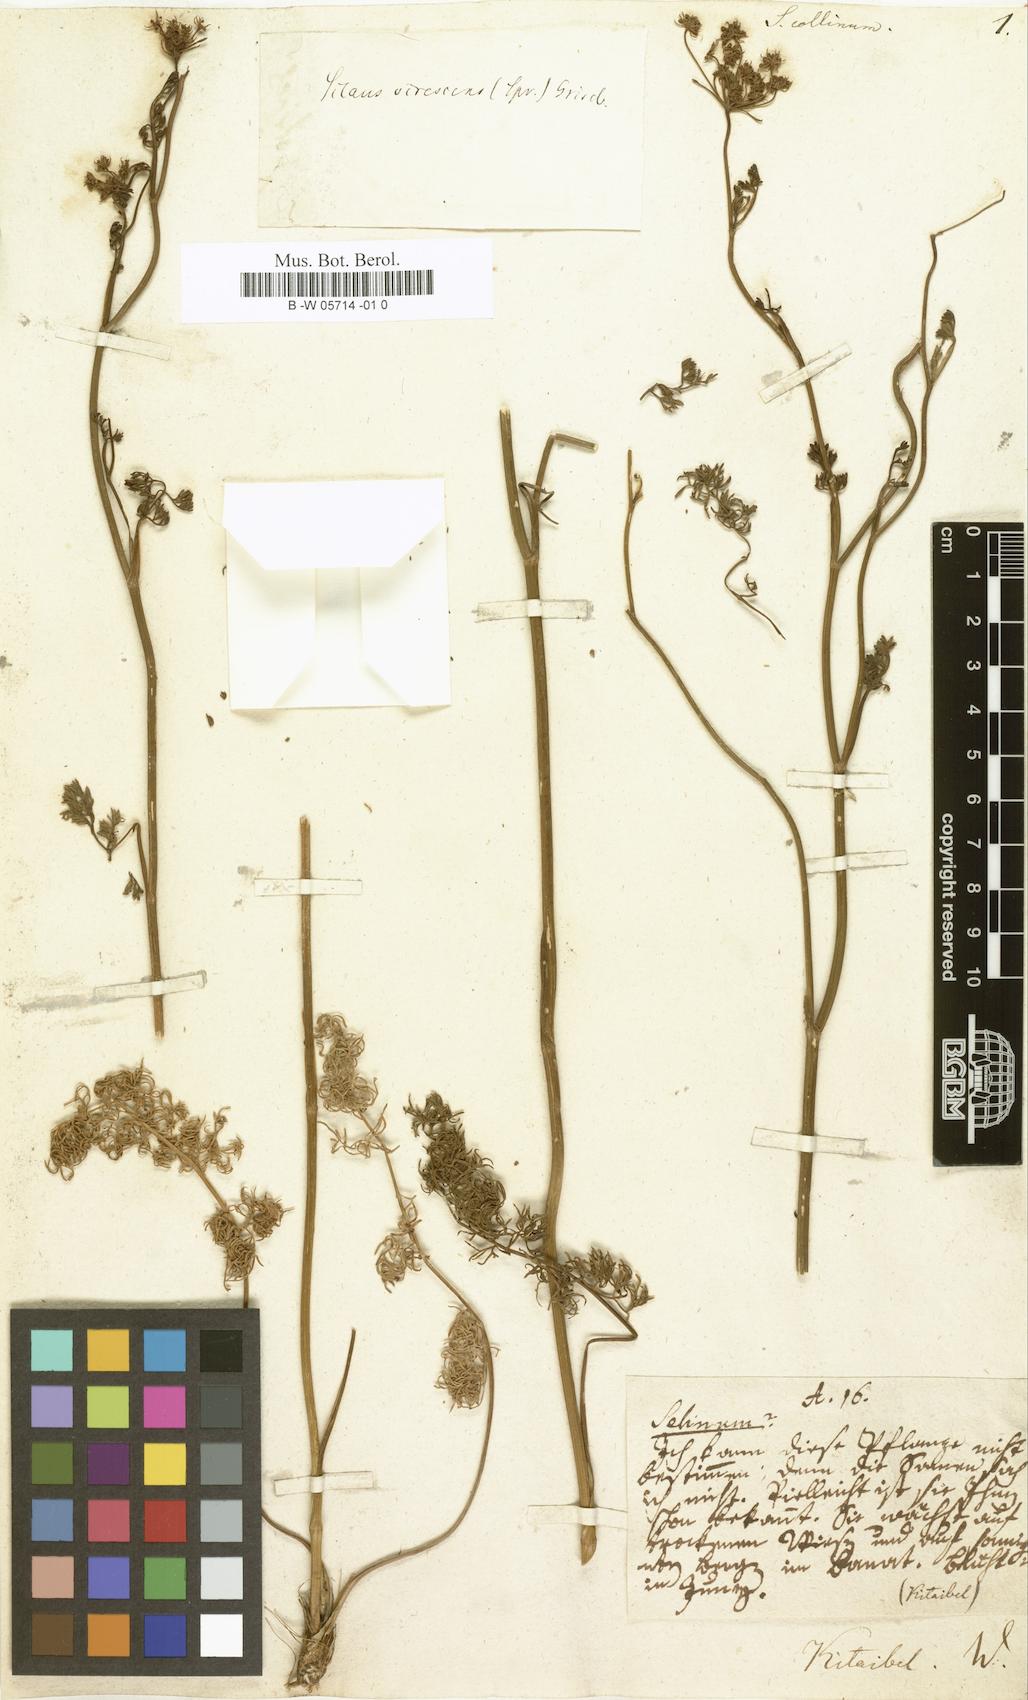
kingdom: Plantae
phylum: Tracheophyta
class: Magnoliopsida
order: Apiales
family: Apiaceae
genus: Kitagawia
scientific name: Kitagawia baicalensis
